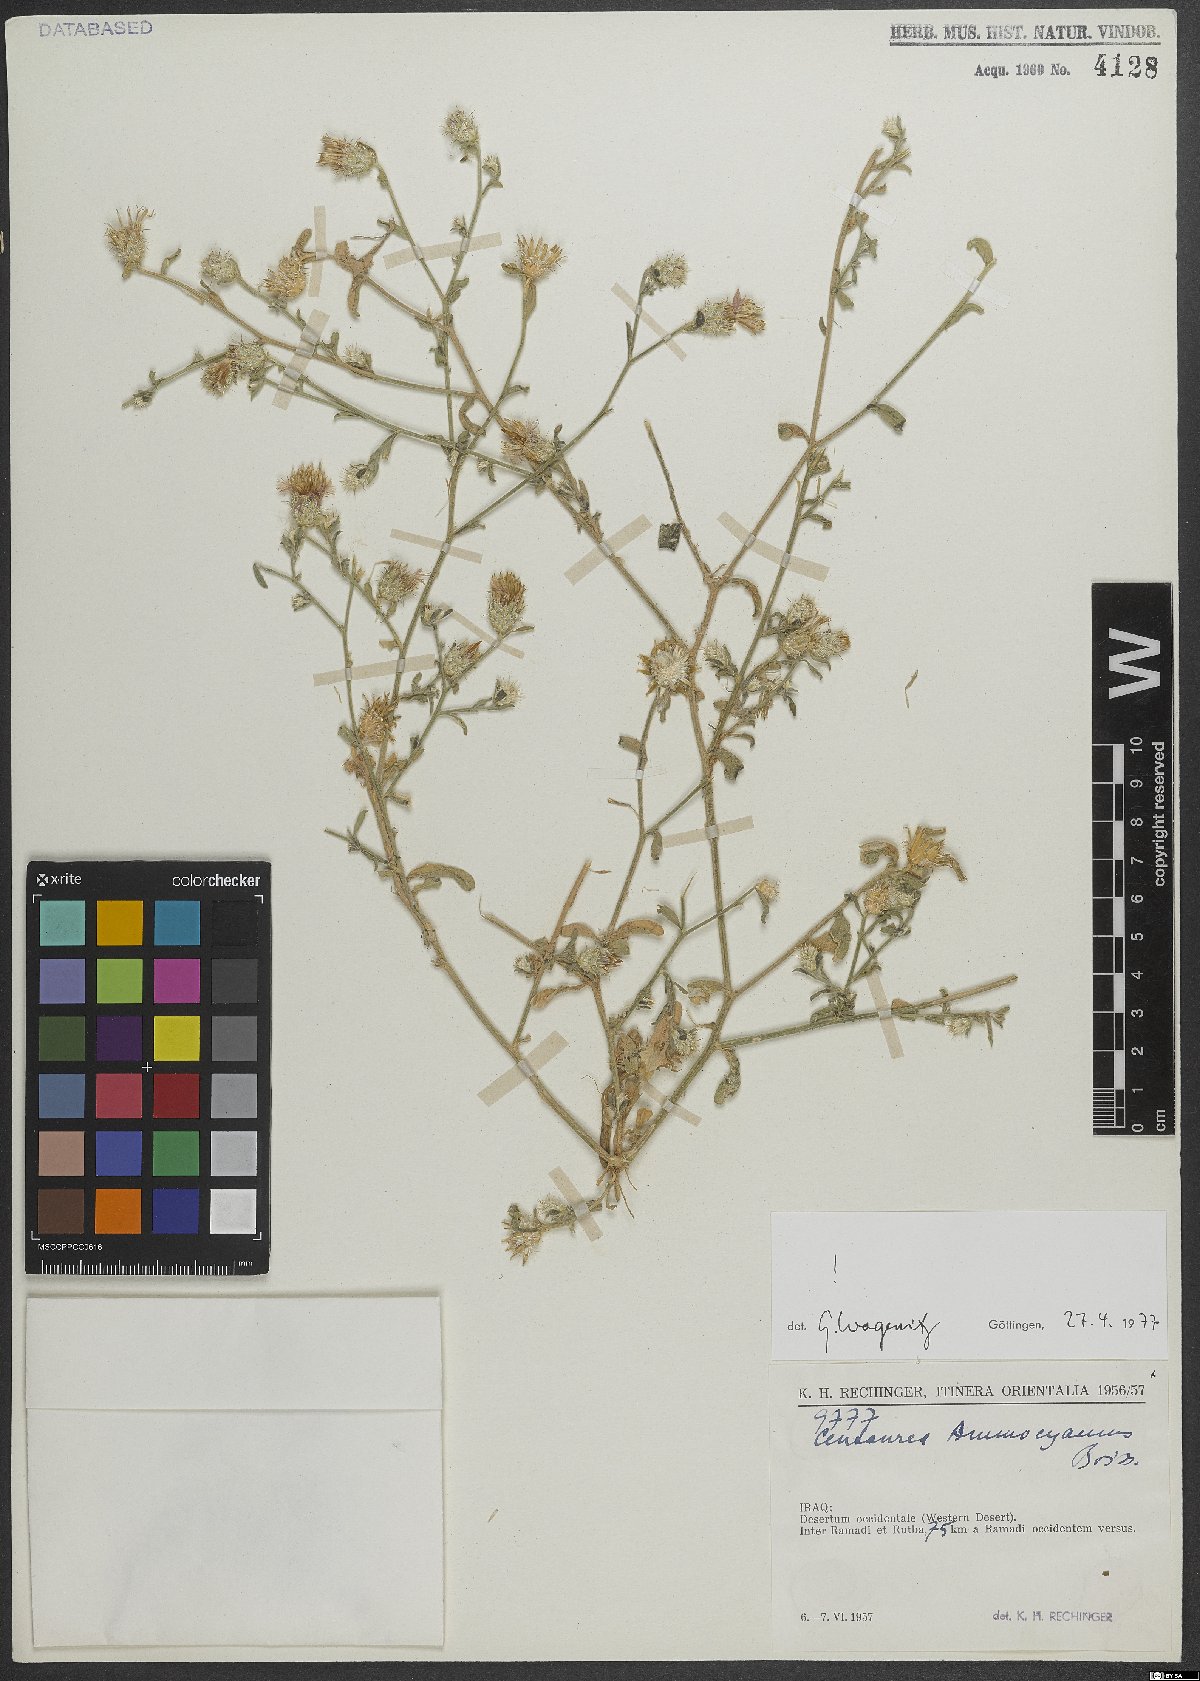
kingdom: Plantae
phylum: Tracheophyta
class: Magnoliopsida
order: Asterales
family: Asteraceae
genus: Centaurea
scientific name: Centaurea ammocyanus
